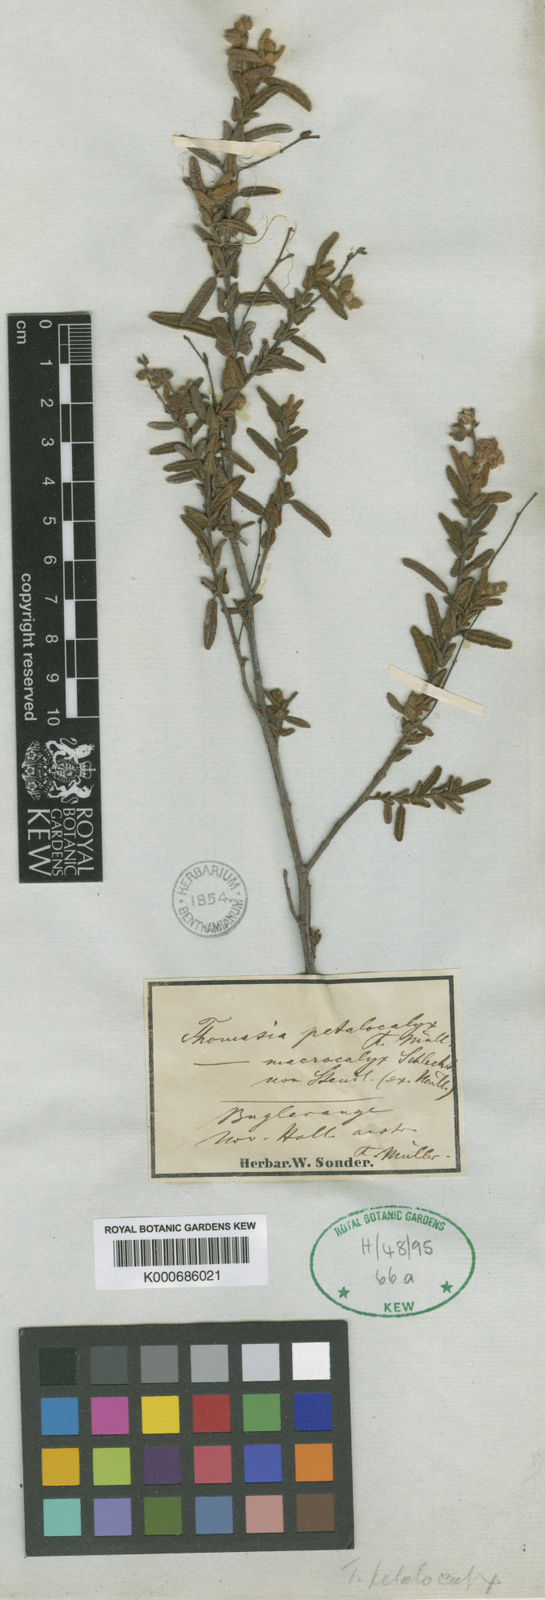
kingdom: Plantae
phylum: Tracheophyta
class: Magnoliopsida
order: Malvales
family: Malvaceae
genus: Thomasia
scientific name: Thomasia petalocalyx
